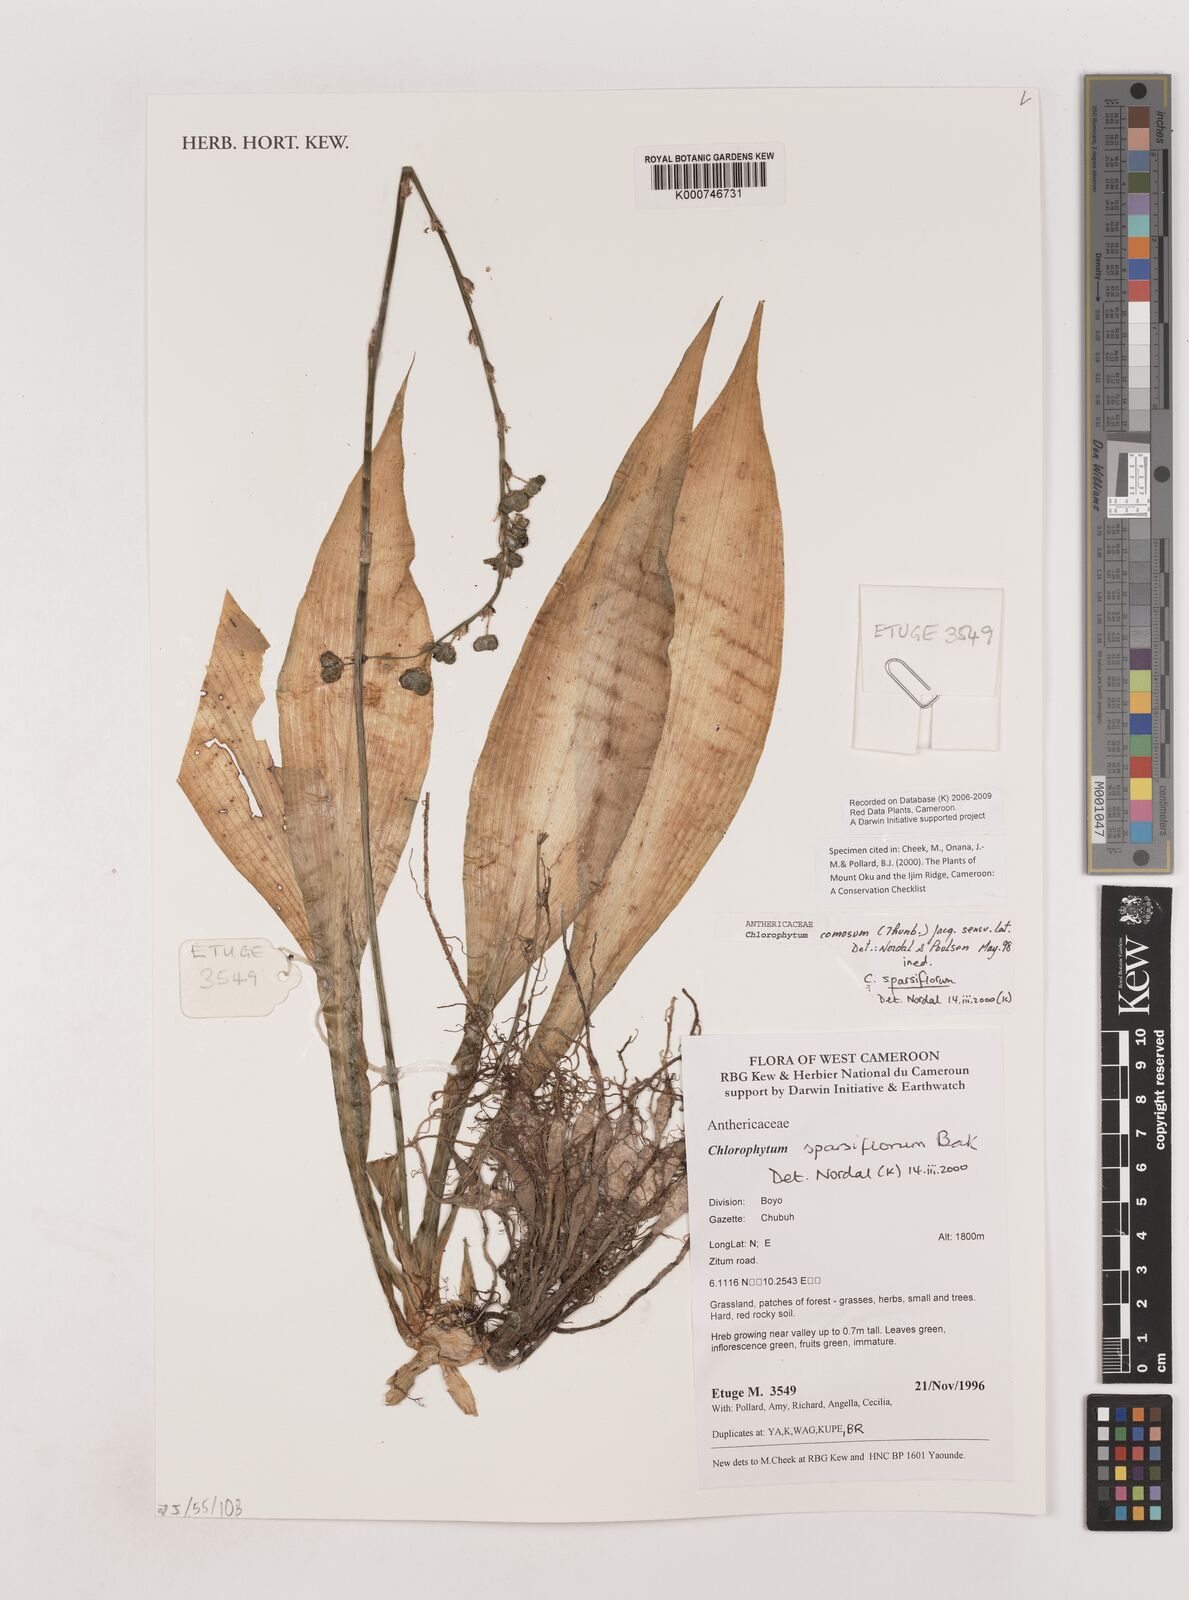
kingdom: Plantae
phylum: Tracheophyta
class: Liliopsida
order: Asparagales
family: Asparagaceae
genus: Chlorophytum
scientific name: Chlorophytum sparsiflorum
